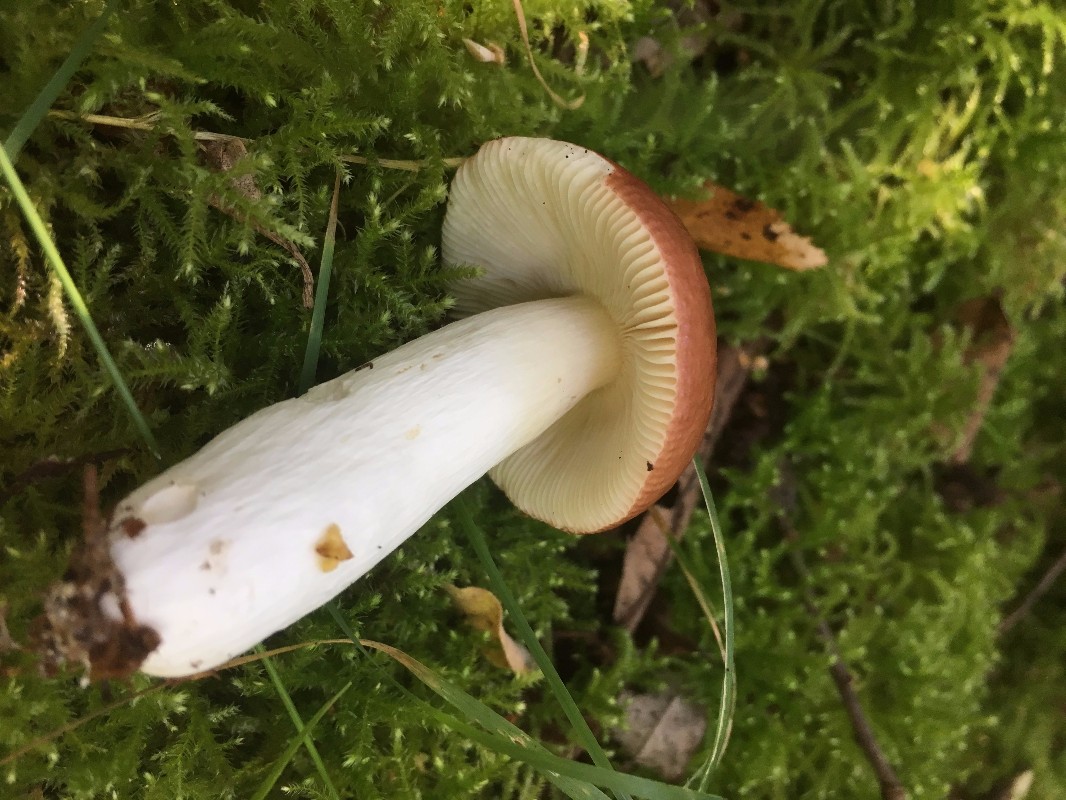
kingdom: Fungi
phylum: Basidiomycota
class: Agaricomycetes
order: Russulales
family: Russulaceae
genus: Russula
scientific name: Russula velenovskyi
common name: orangerød skørhat
